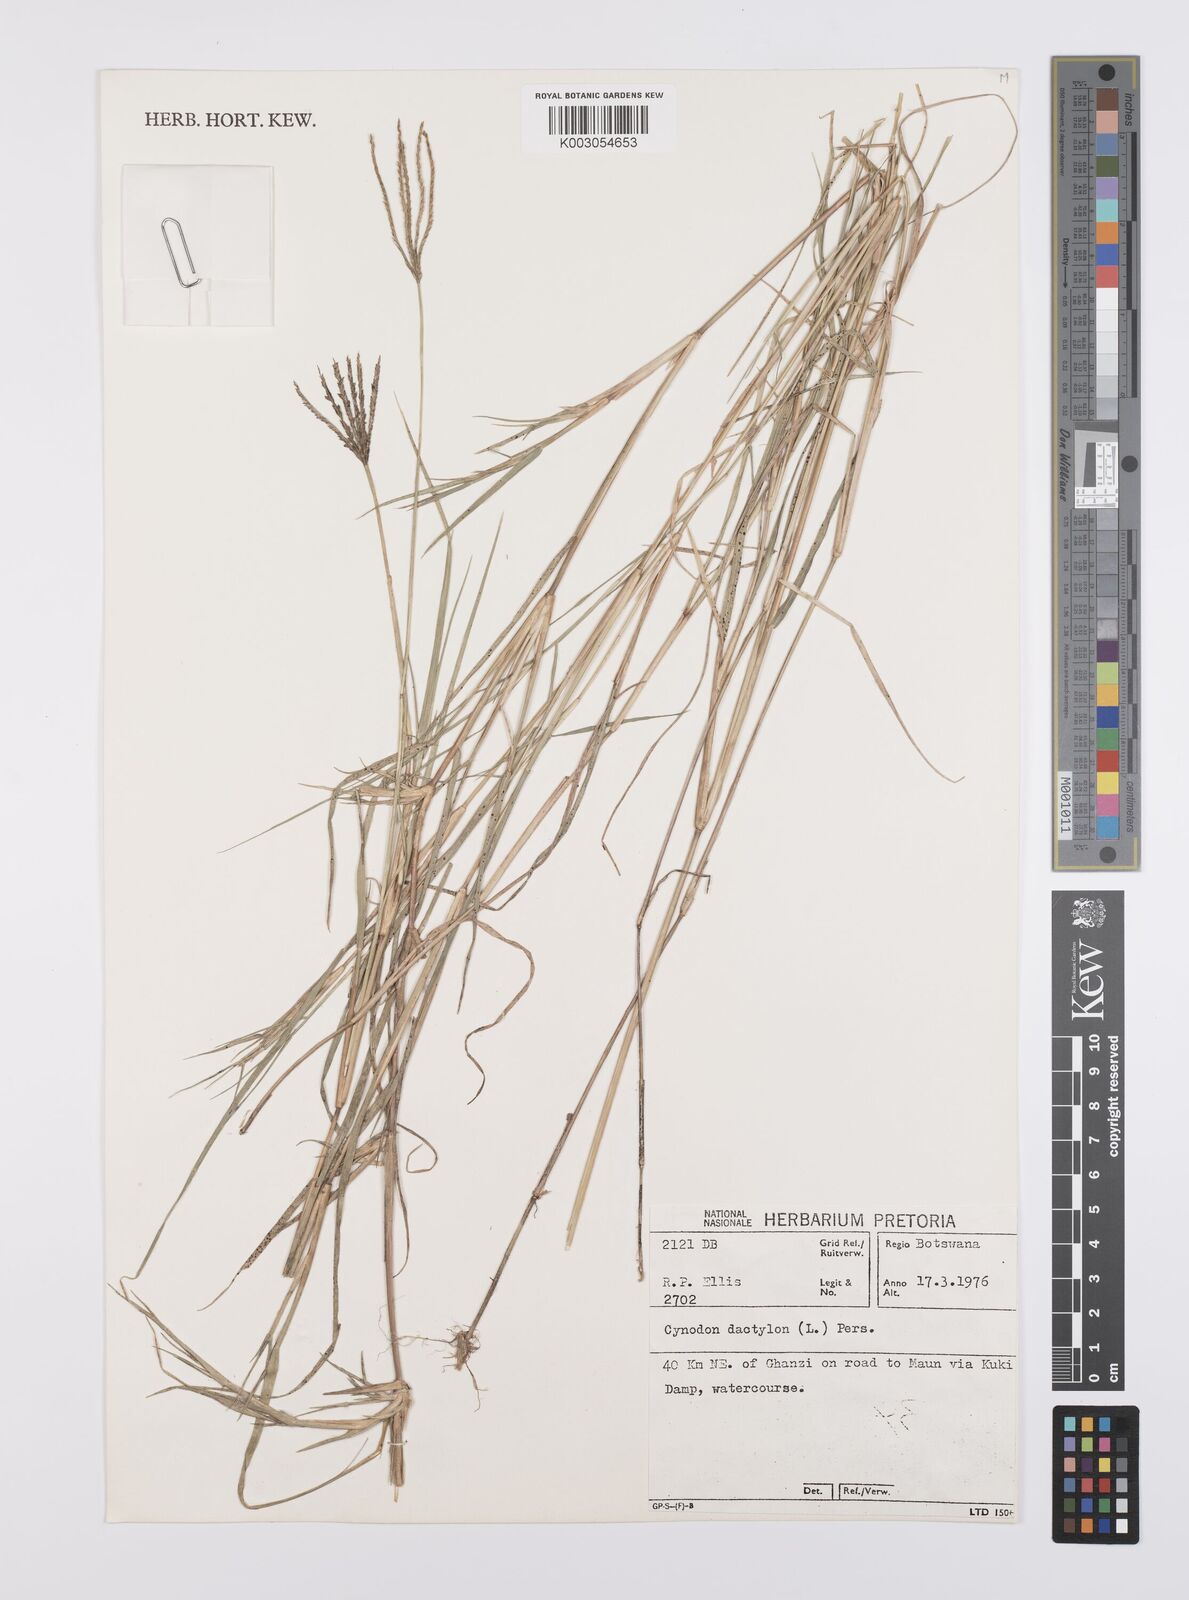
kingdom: Plantae
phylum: Tracheophyta
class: Liliopsida
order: Poales
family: Poaceae
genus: Cynodon
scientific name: Cynodon dactylon
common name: Bermuda grass
